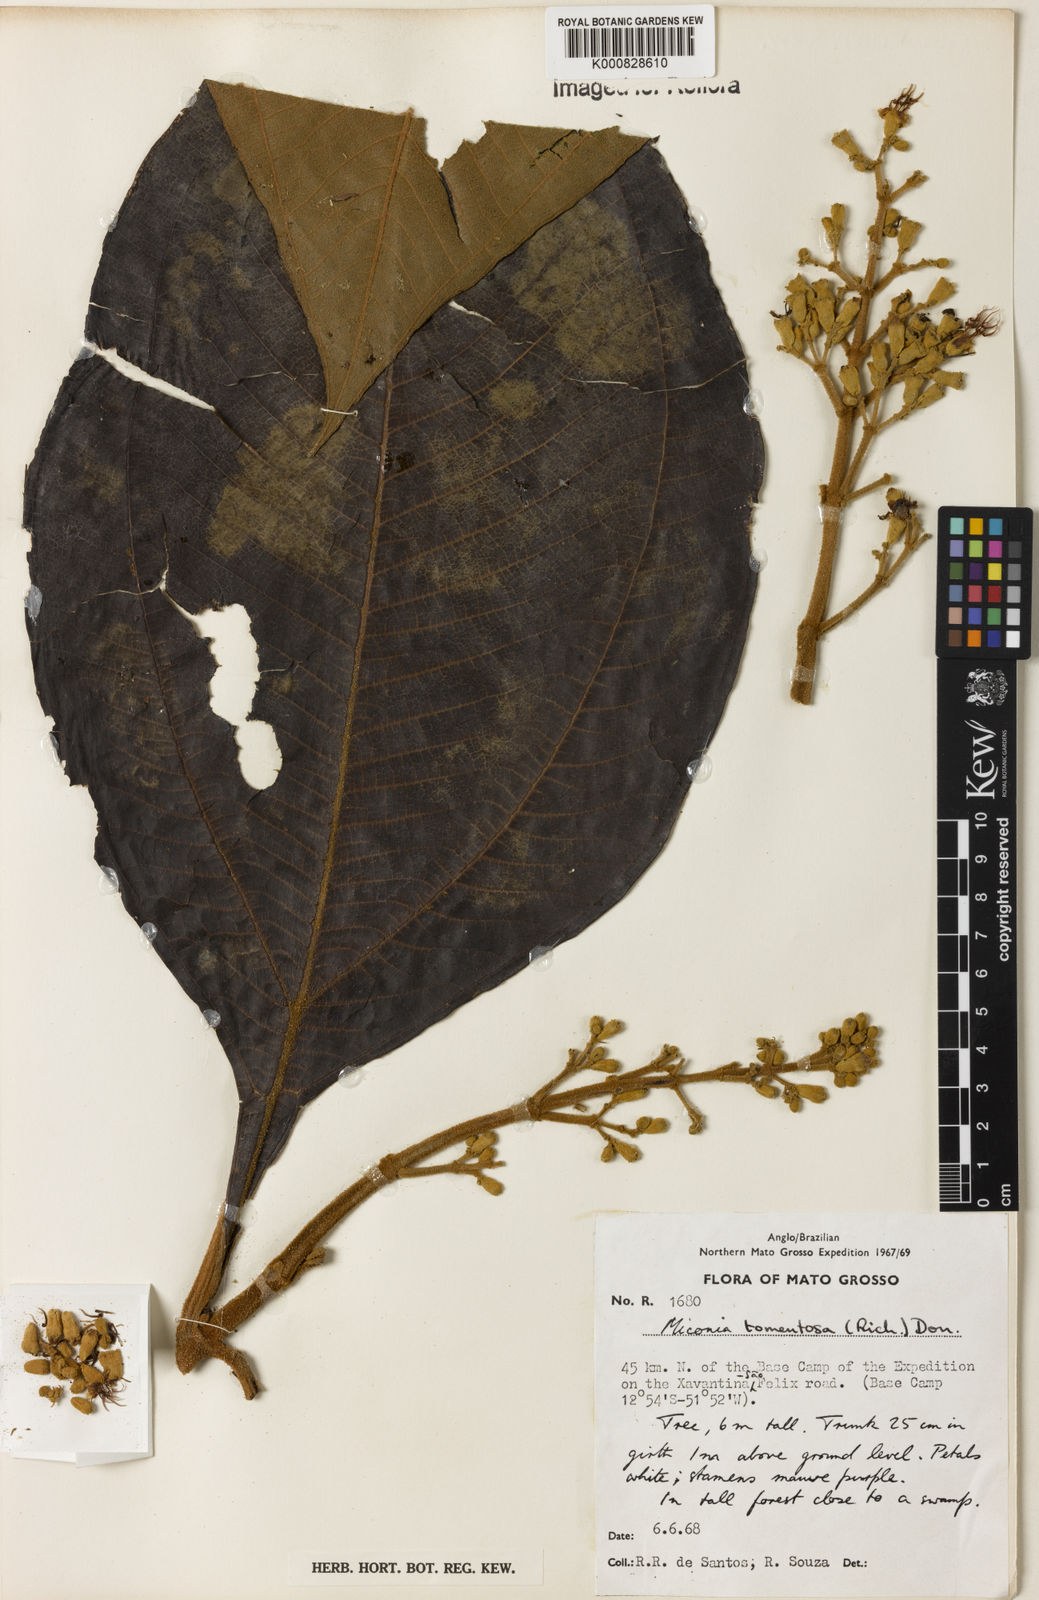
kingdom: Plantae
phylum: Tracheophyta
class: Magnoliopsida
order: Myrtales
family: Melastomataceae
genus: Miconia
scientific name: Miconia tomentosa
